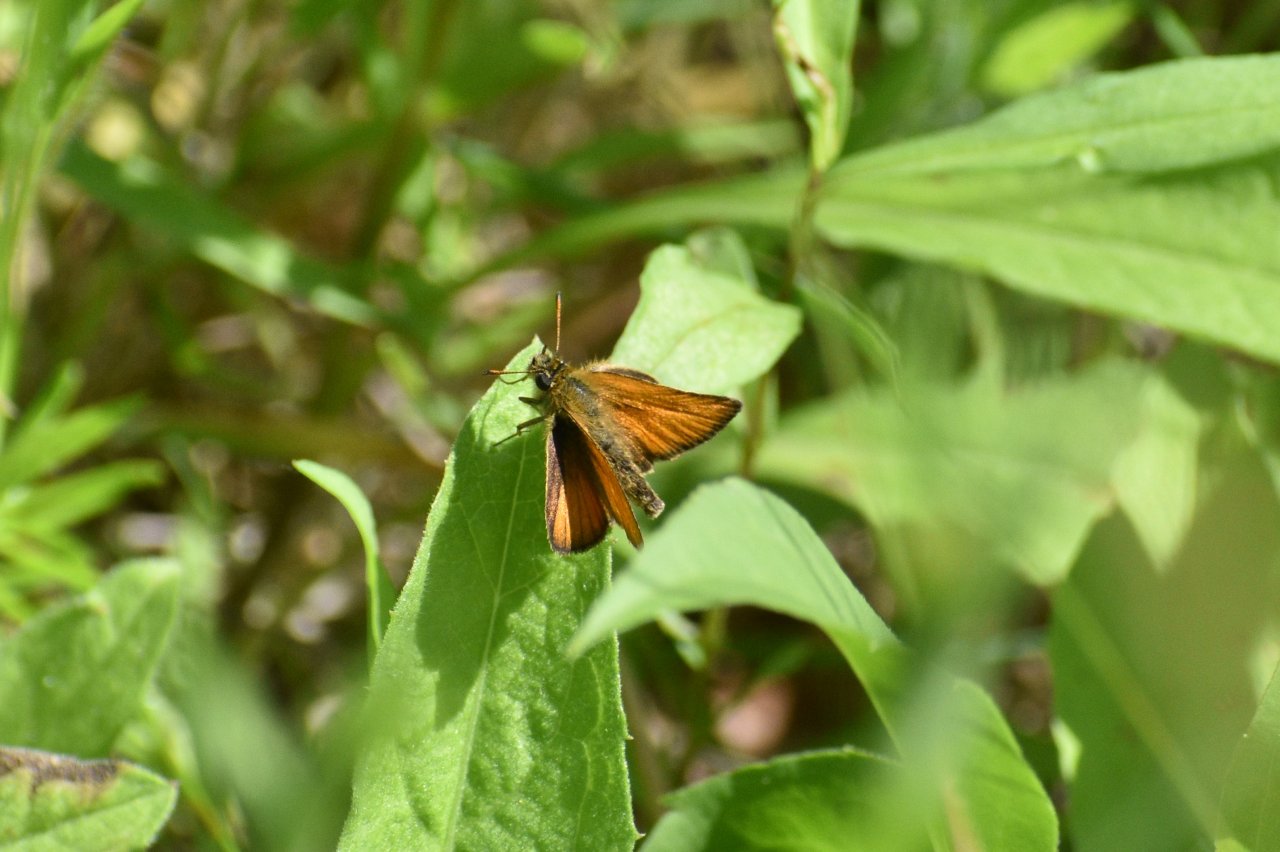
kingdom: Animalia
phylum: Arthropoda
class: Insecta
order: Lepidoptera
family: Hesperiidae
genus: Thymelicus
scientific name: Thymelicus lineola
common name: European Skipper
